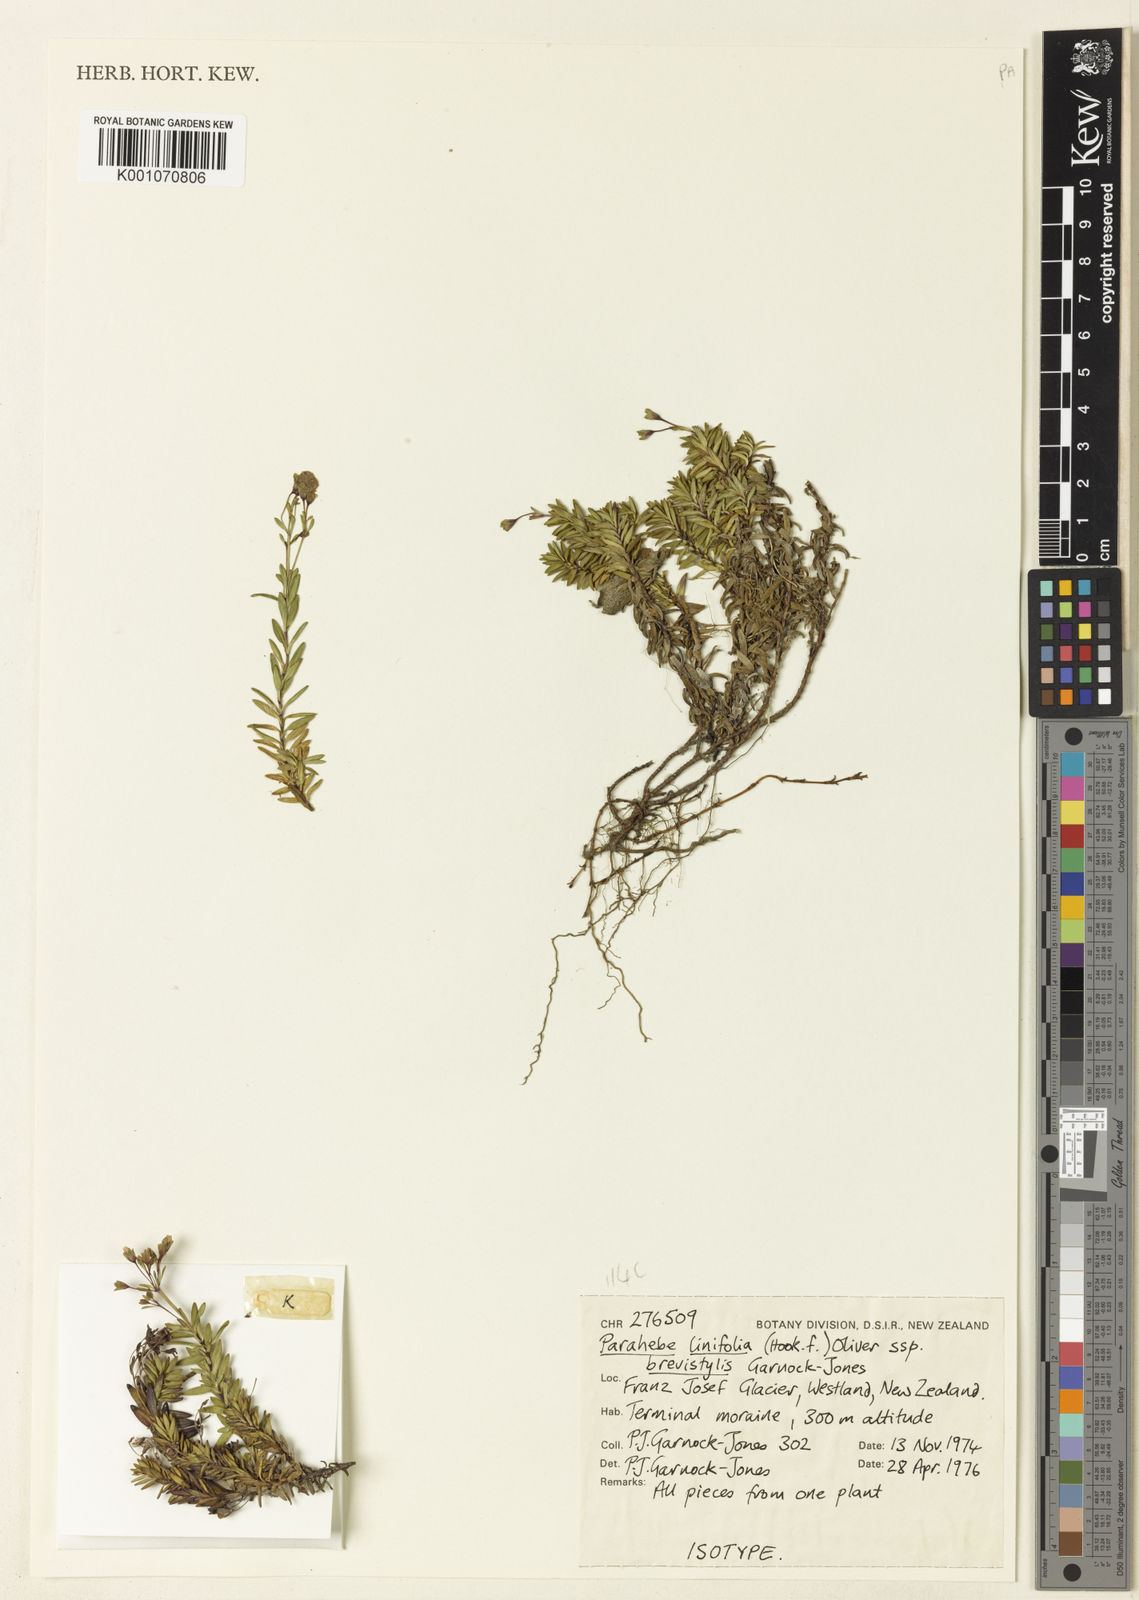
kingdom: Plantae
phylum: Tracheophyta
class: Magnoliopsida
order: Lamiales
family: Plantaginaceae
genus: Veronica
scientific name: Veronica colostylis
